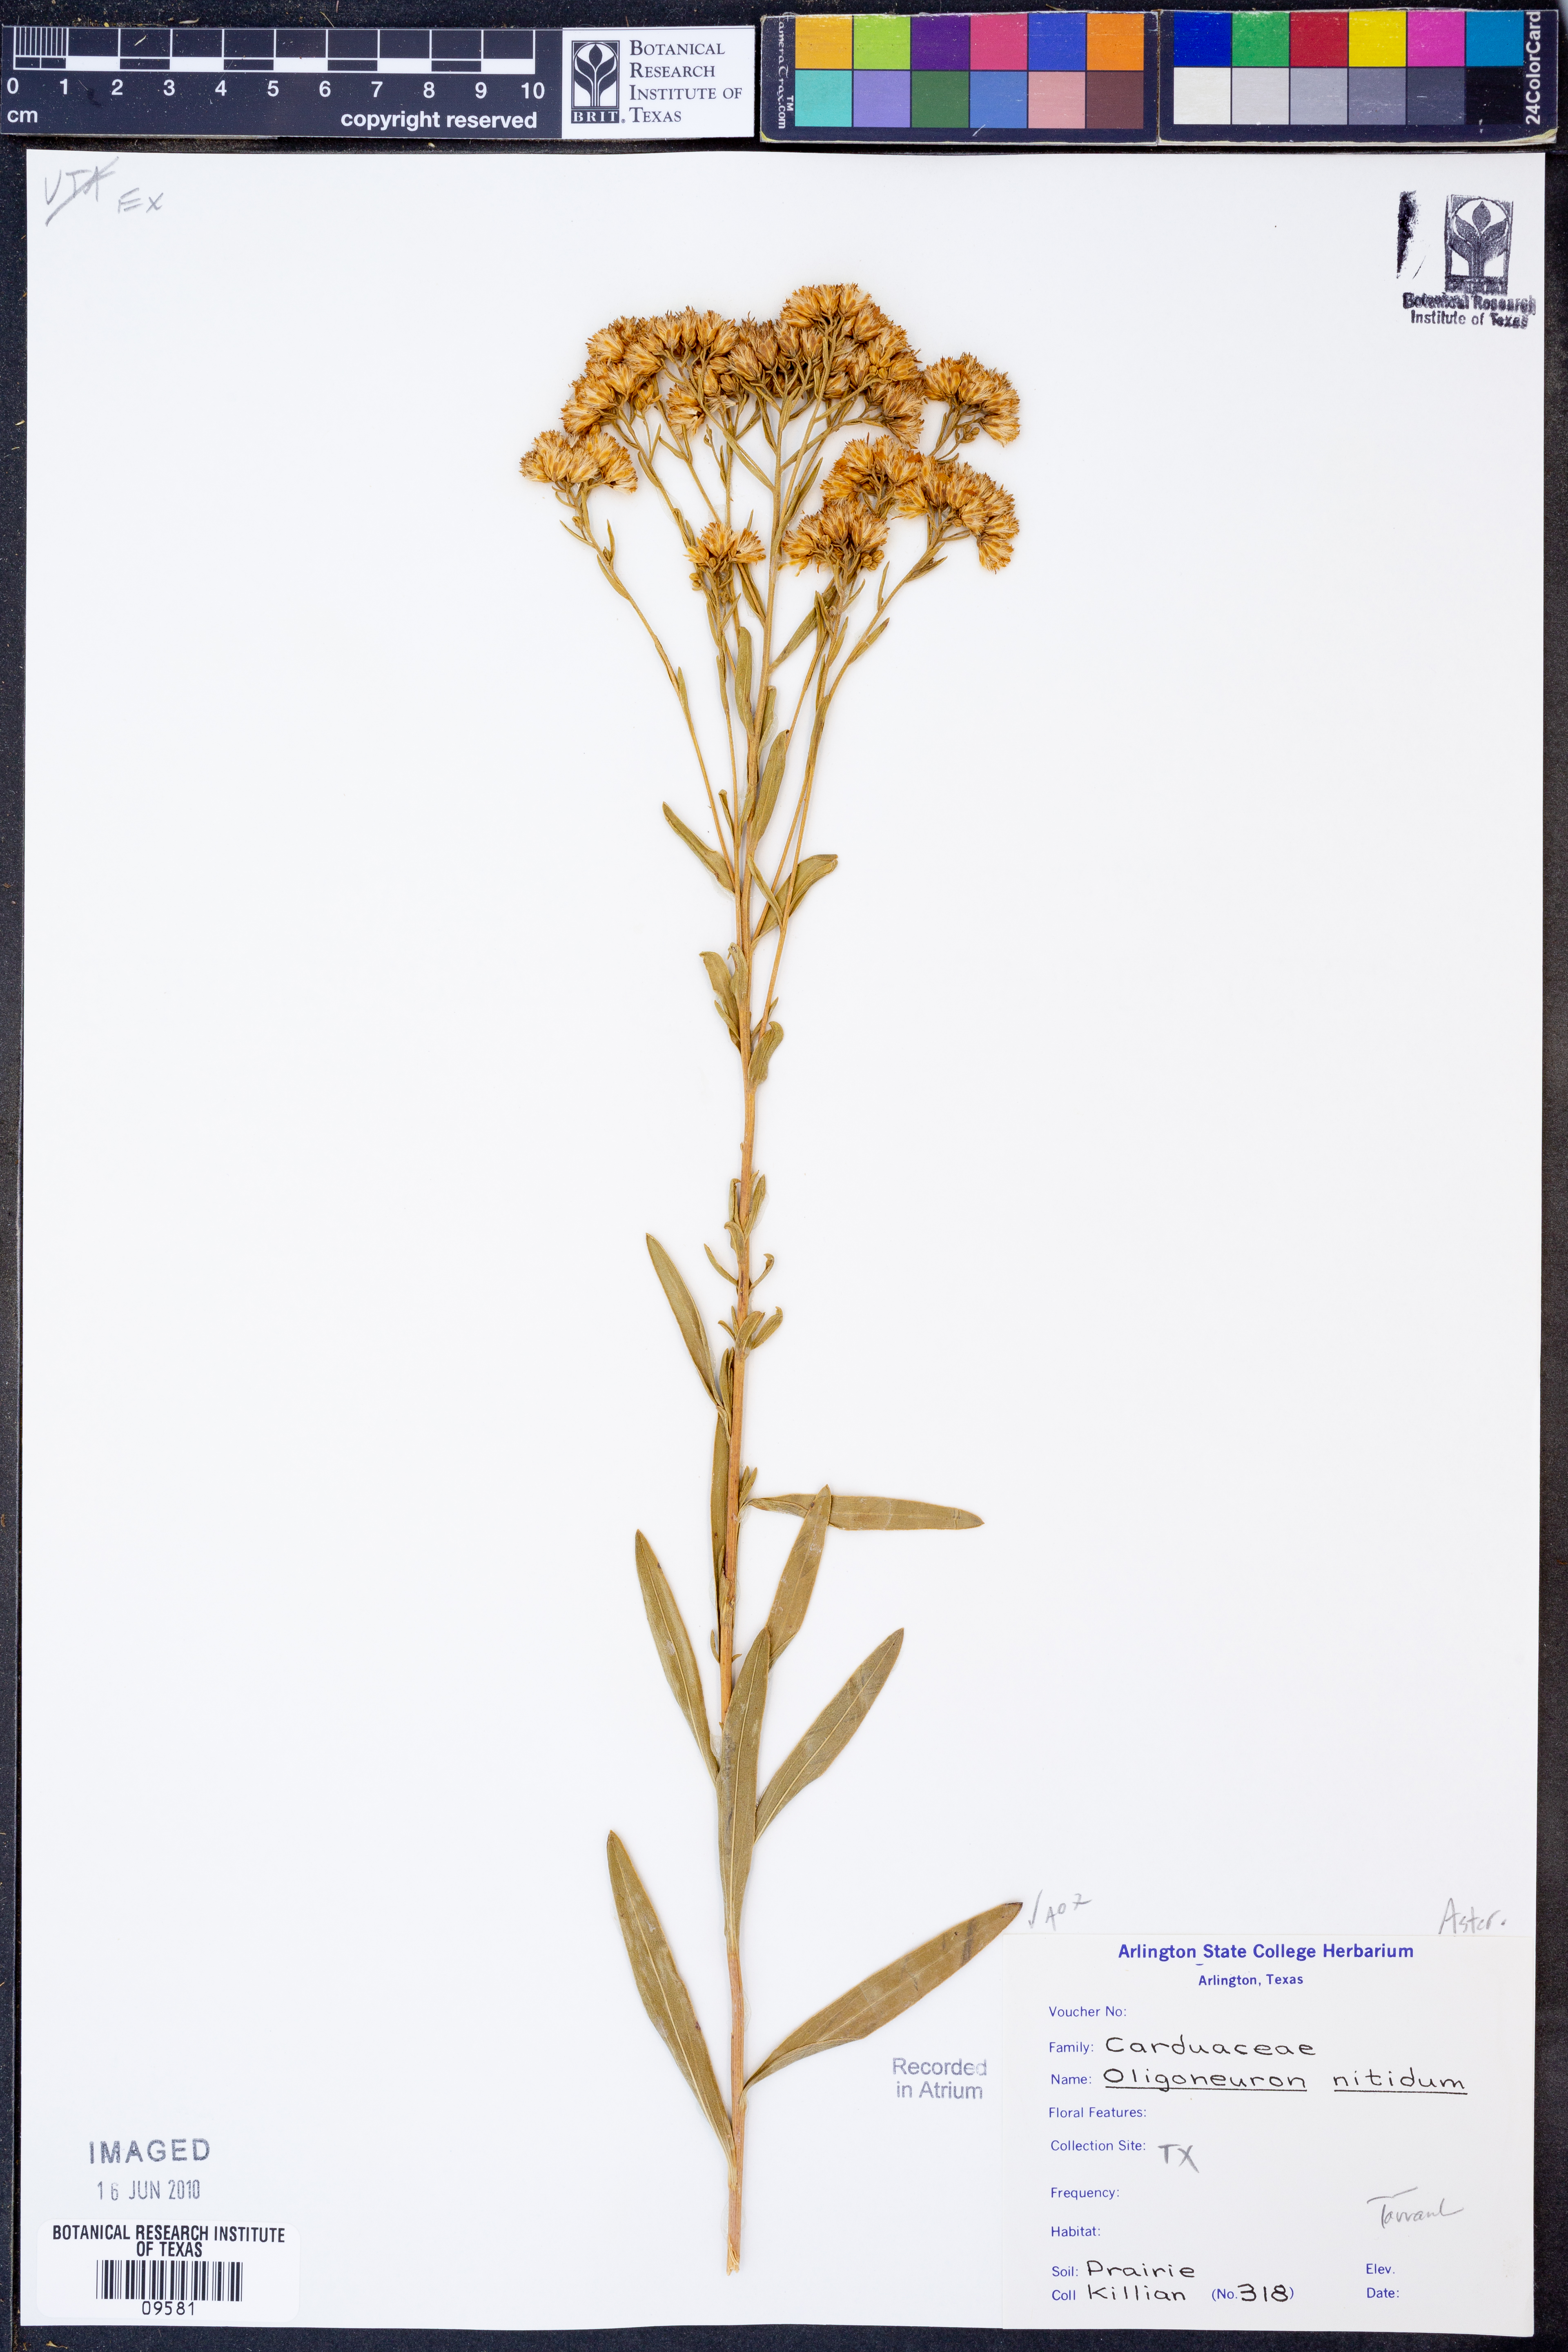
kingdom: Plantae
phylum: Tracheophyta
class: Magnoliopsida
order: Asterales
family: Asteraceae
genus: Solidago
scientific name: Solidago nitida
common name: Shiny goldenrod
